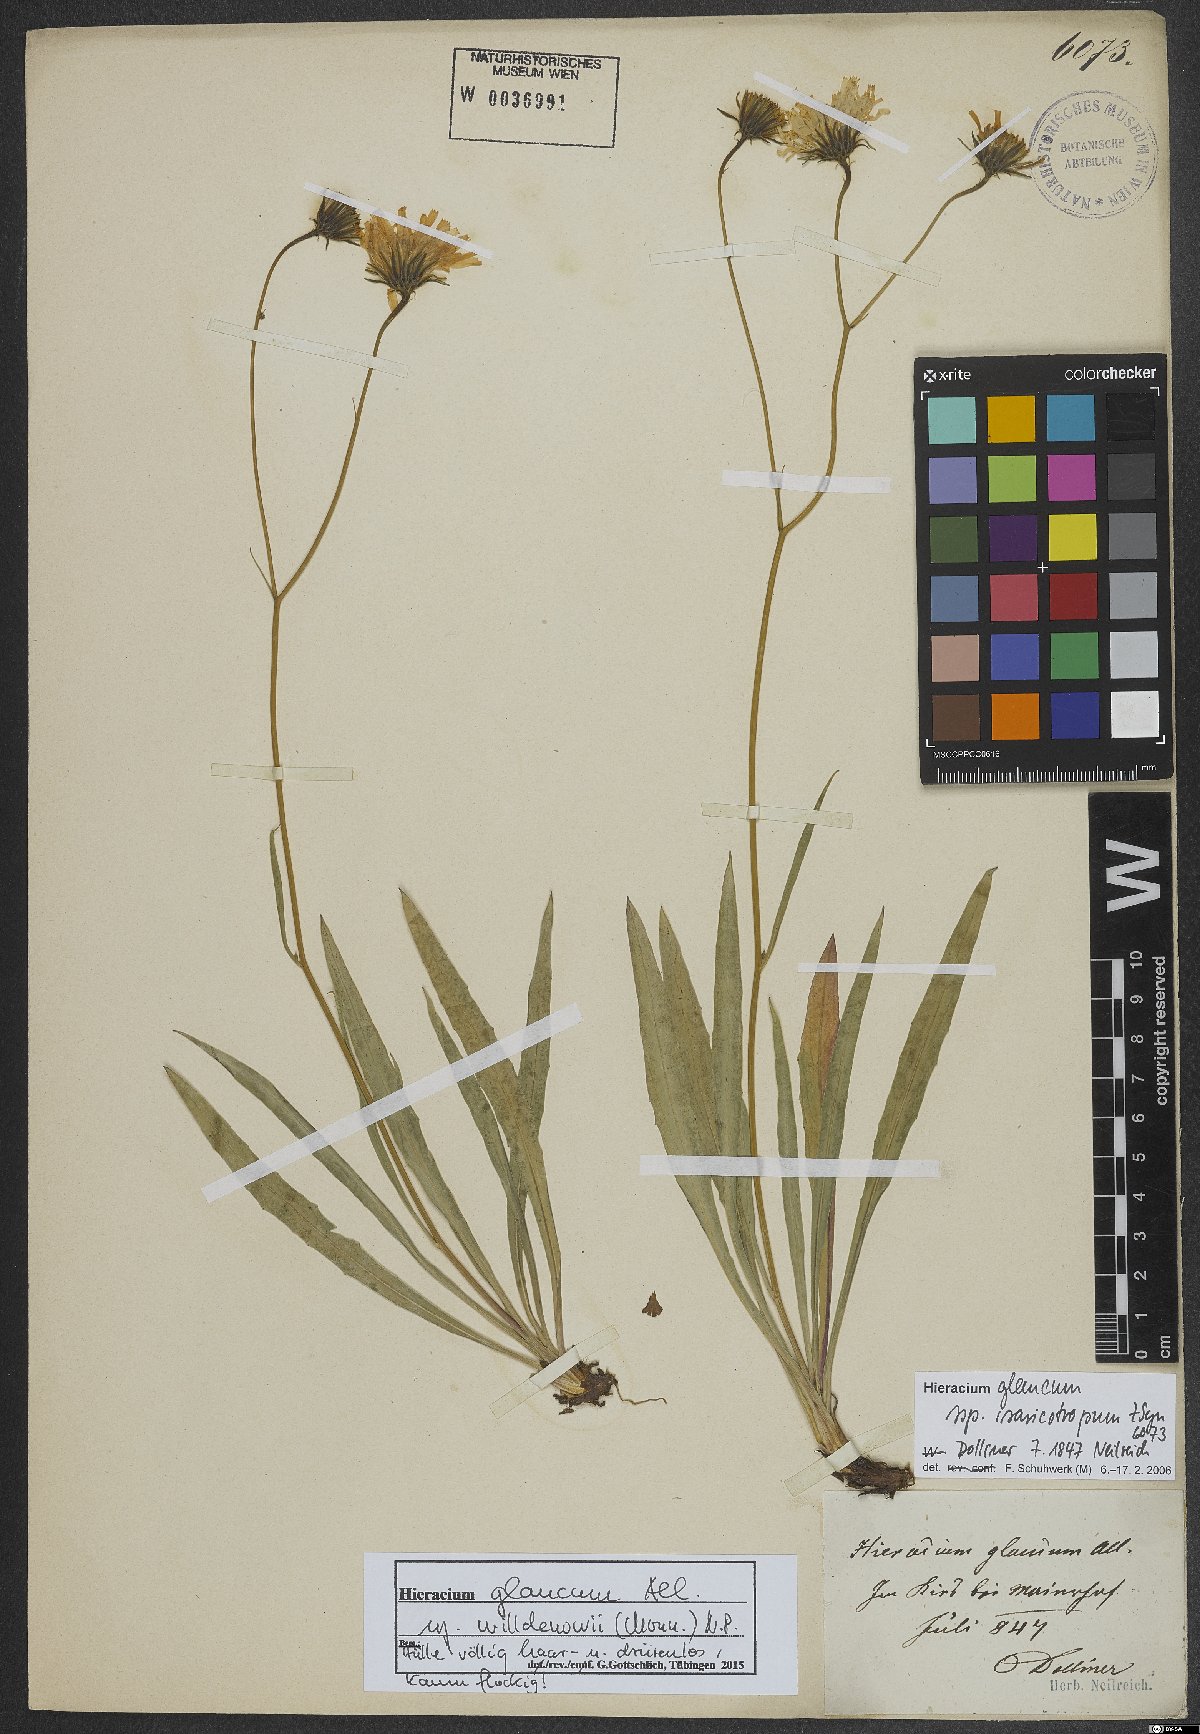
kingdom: Plantae
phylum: Tracheophyta
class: Magnoliopsida
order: Asterales
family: Asteraceae
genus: Hieracium
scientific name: Hieracium glaucum
